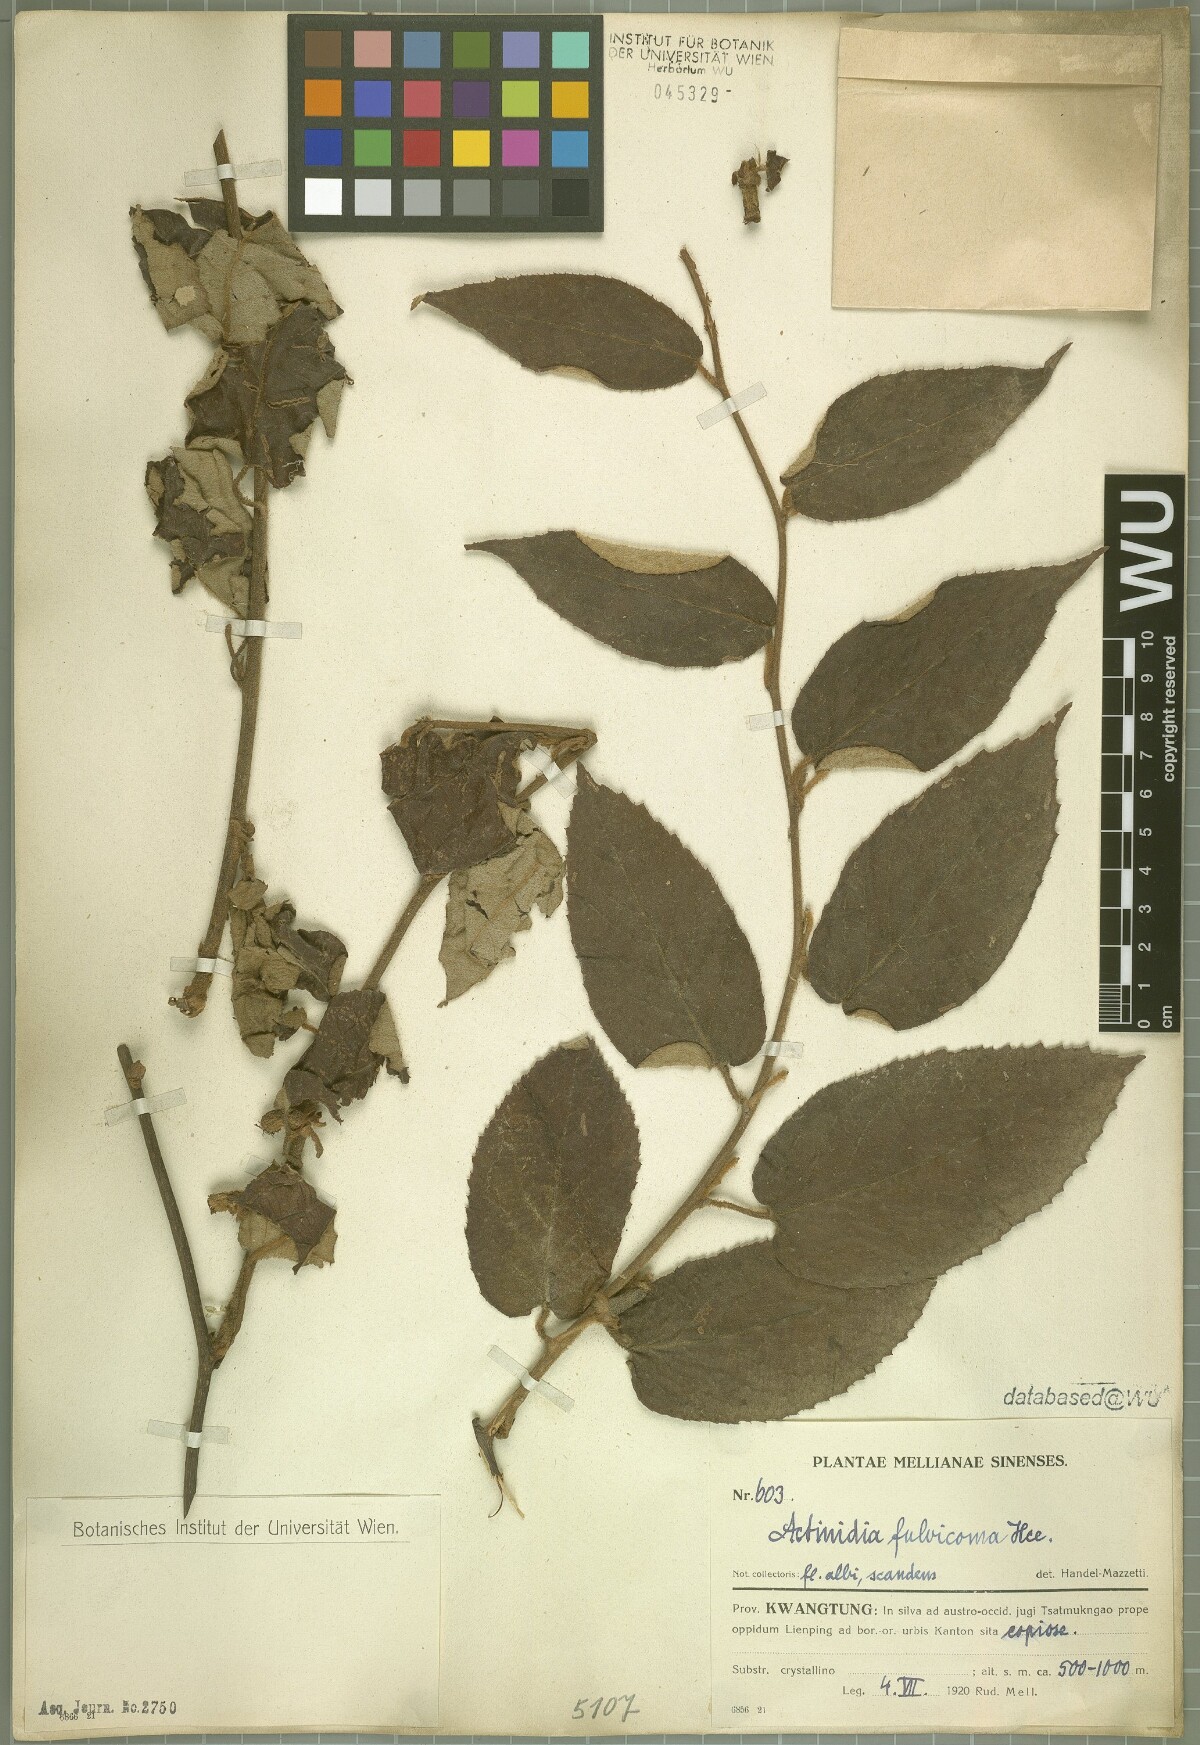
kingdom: Plantae
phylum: Tracheophyta
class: Magnoliopsida
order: Ericales
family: Actinidiaceae
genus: Actinidia
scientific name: Actinidia fulvicoma
